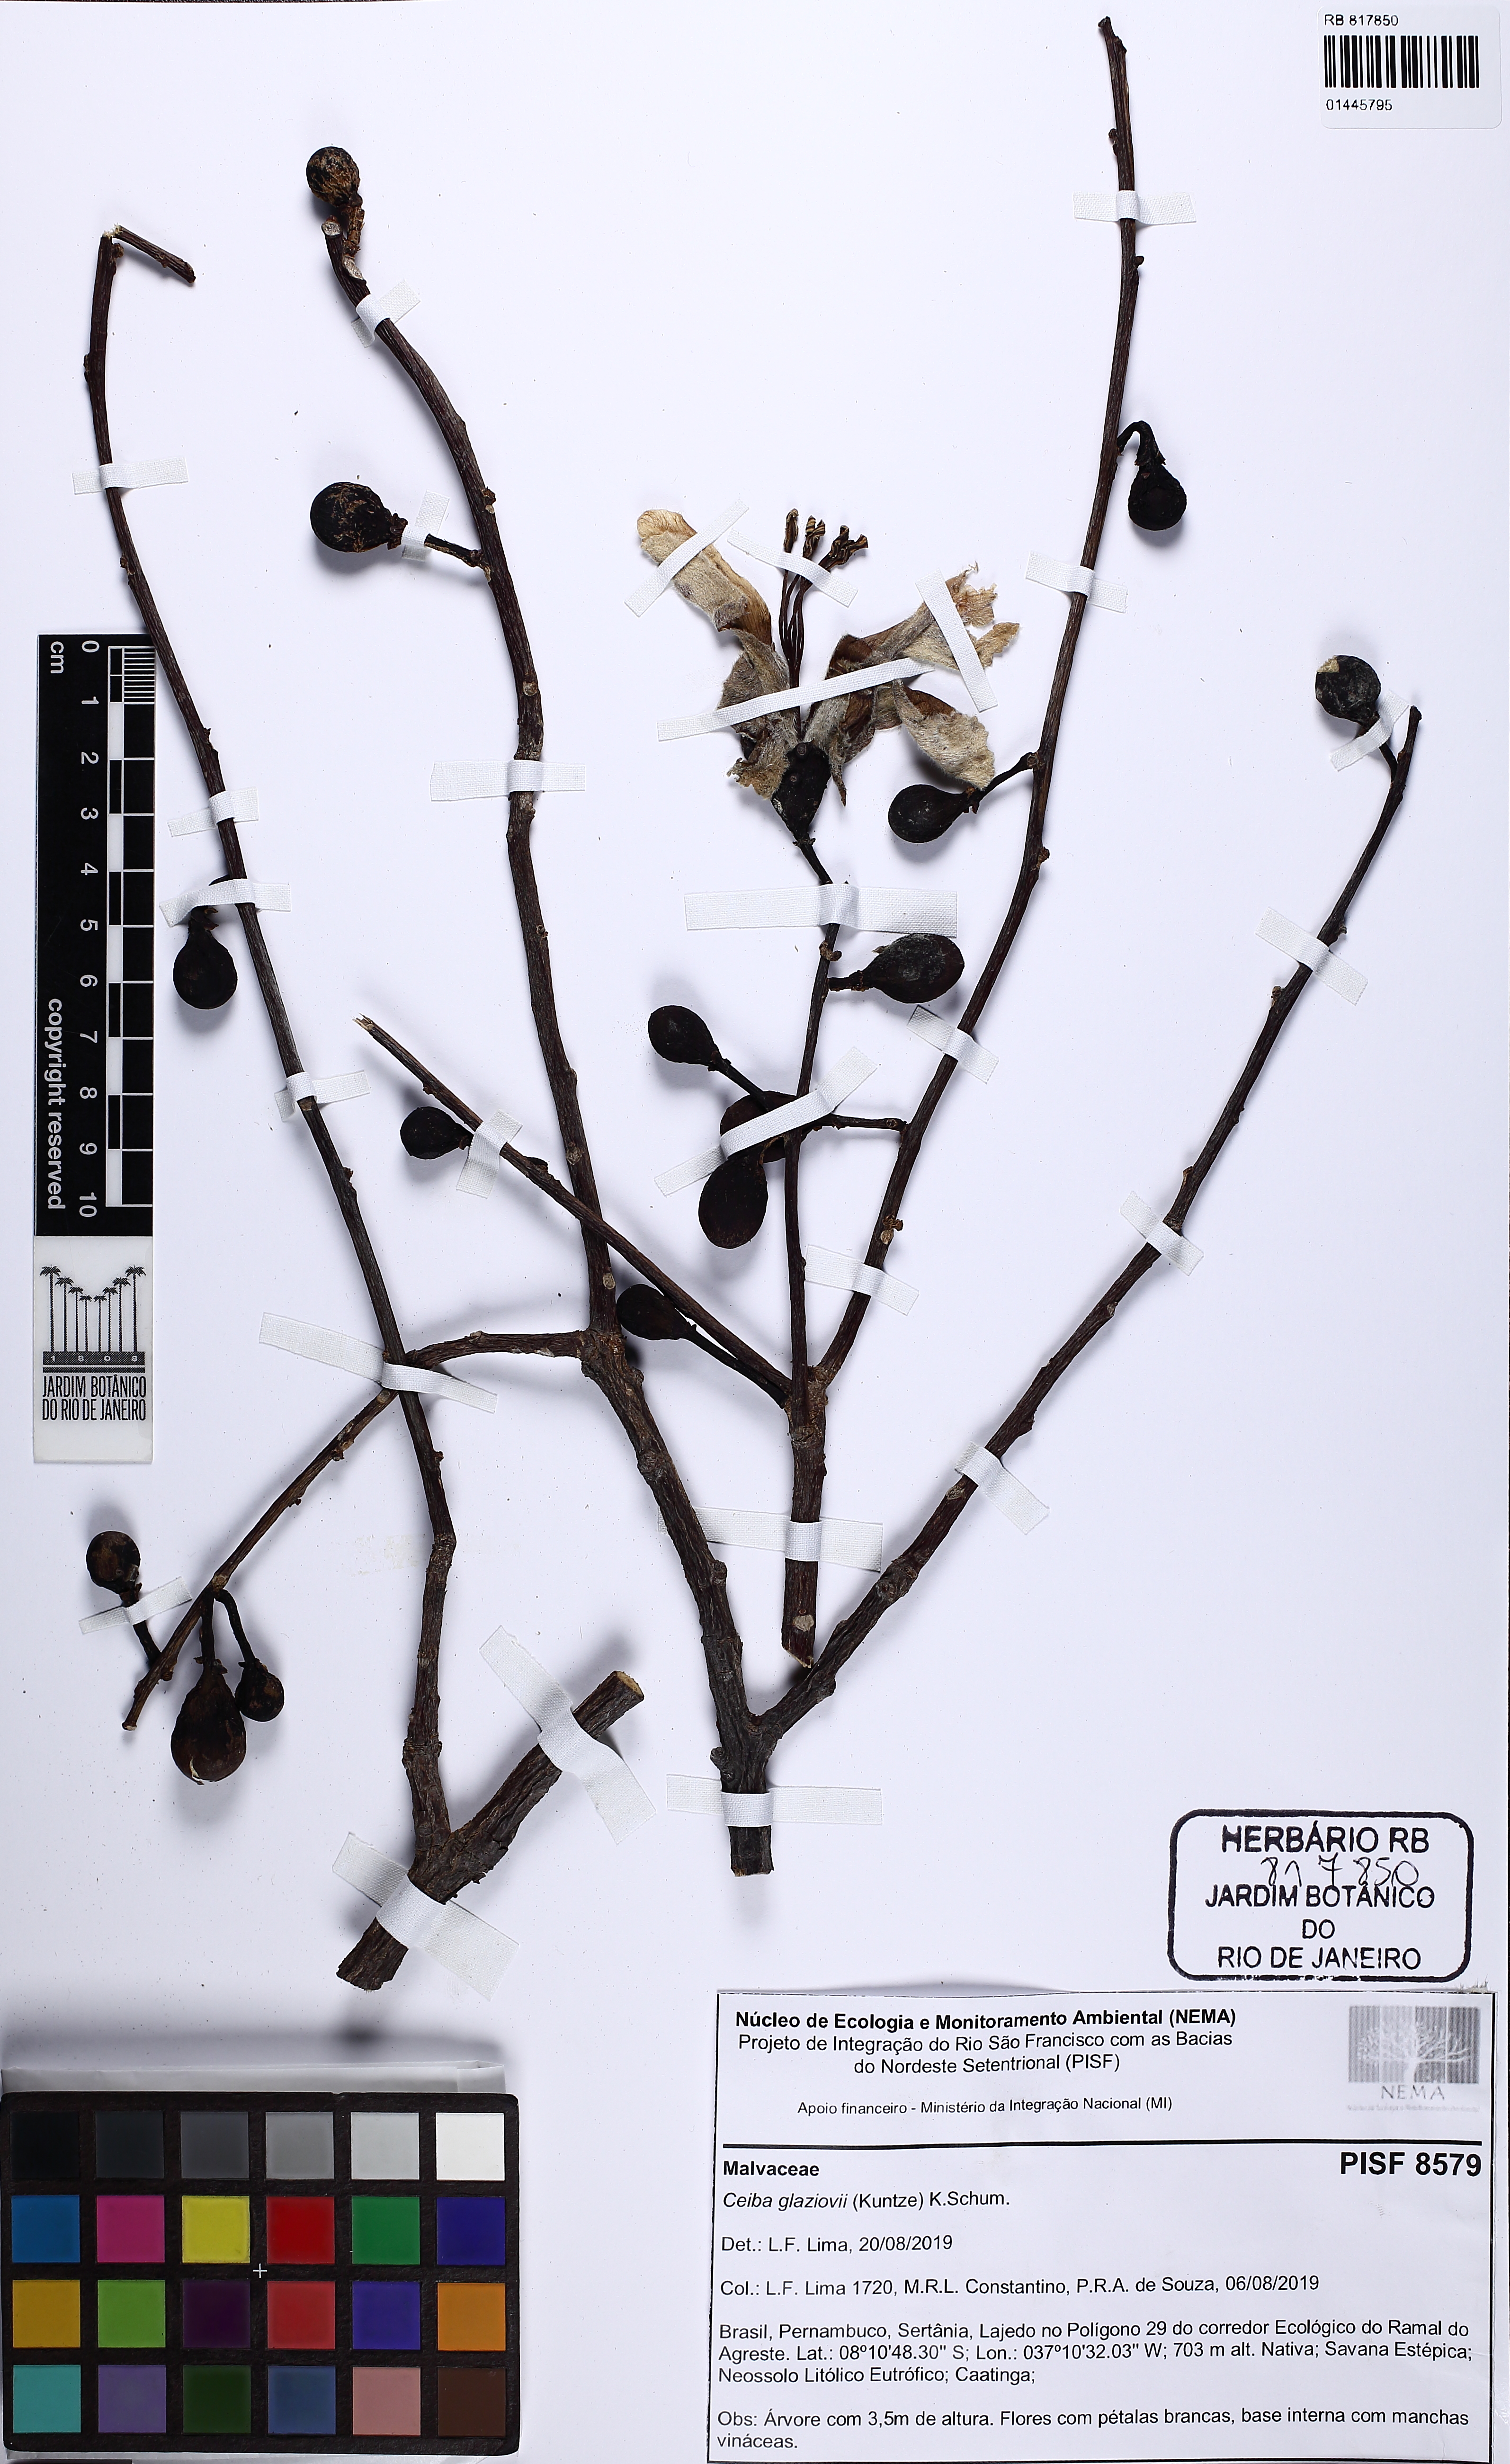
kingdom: Plantae
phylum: Tracheophyta
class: Magnoliopsida
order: Malvales
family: Malvaceae
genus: Ceiba
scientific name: Ceiba glaziovii
